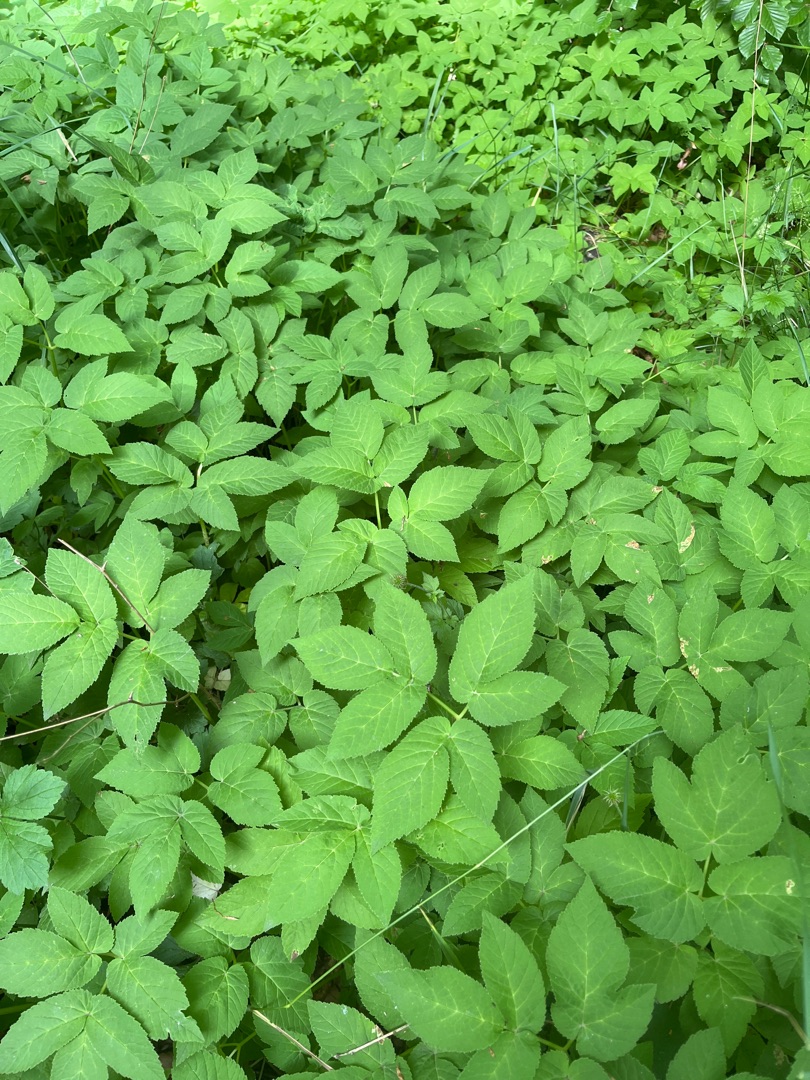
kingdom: Plantae
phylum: Tracheophyta
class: Magnoliopsida
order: Apiales
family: Apiaceae
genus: Aegopodium
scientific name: Aegopodium podagraria
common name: Skvalderkål
